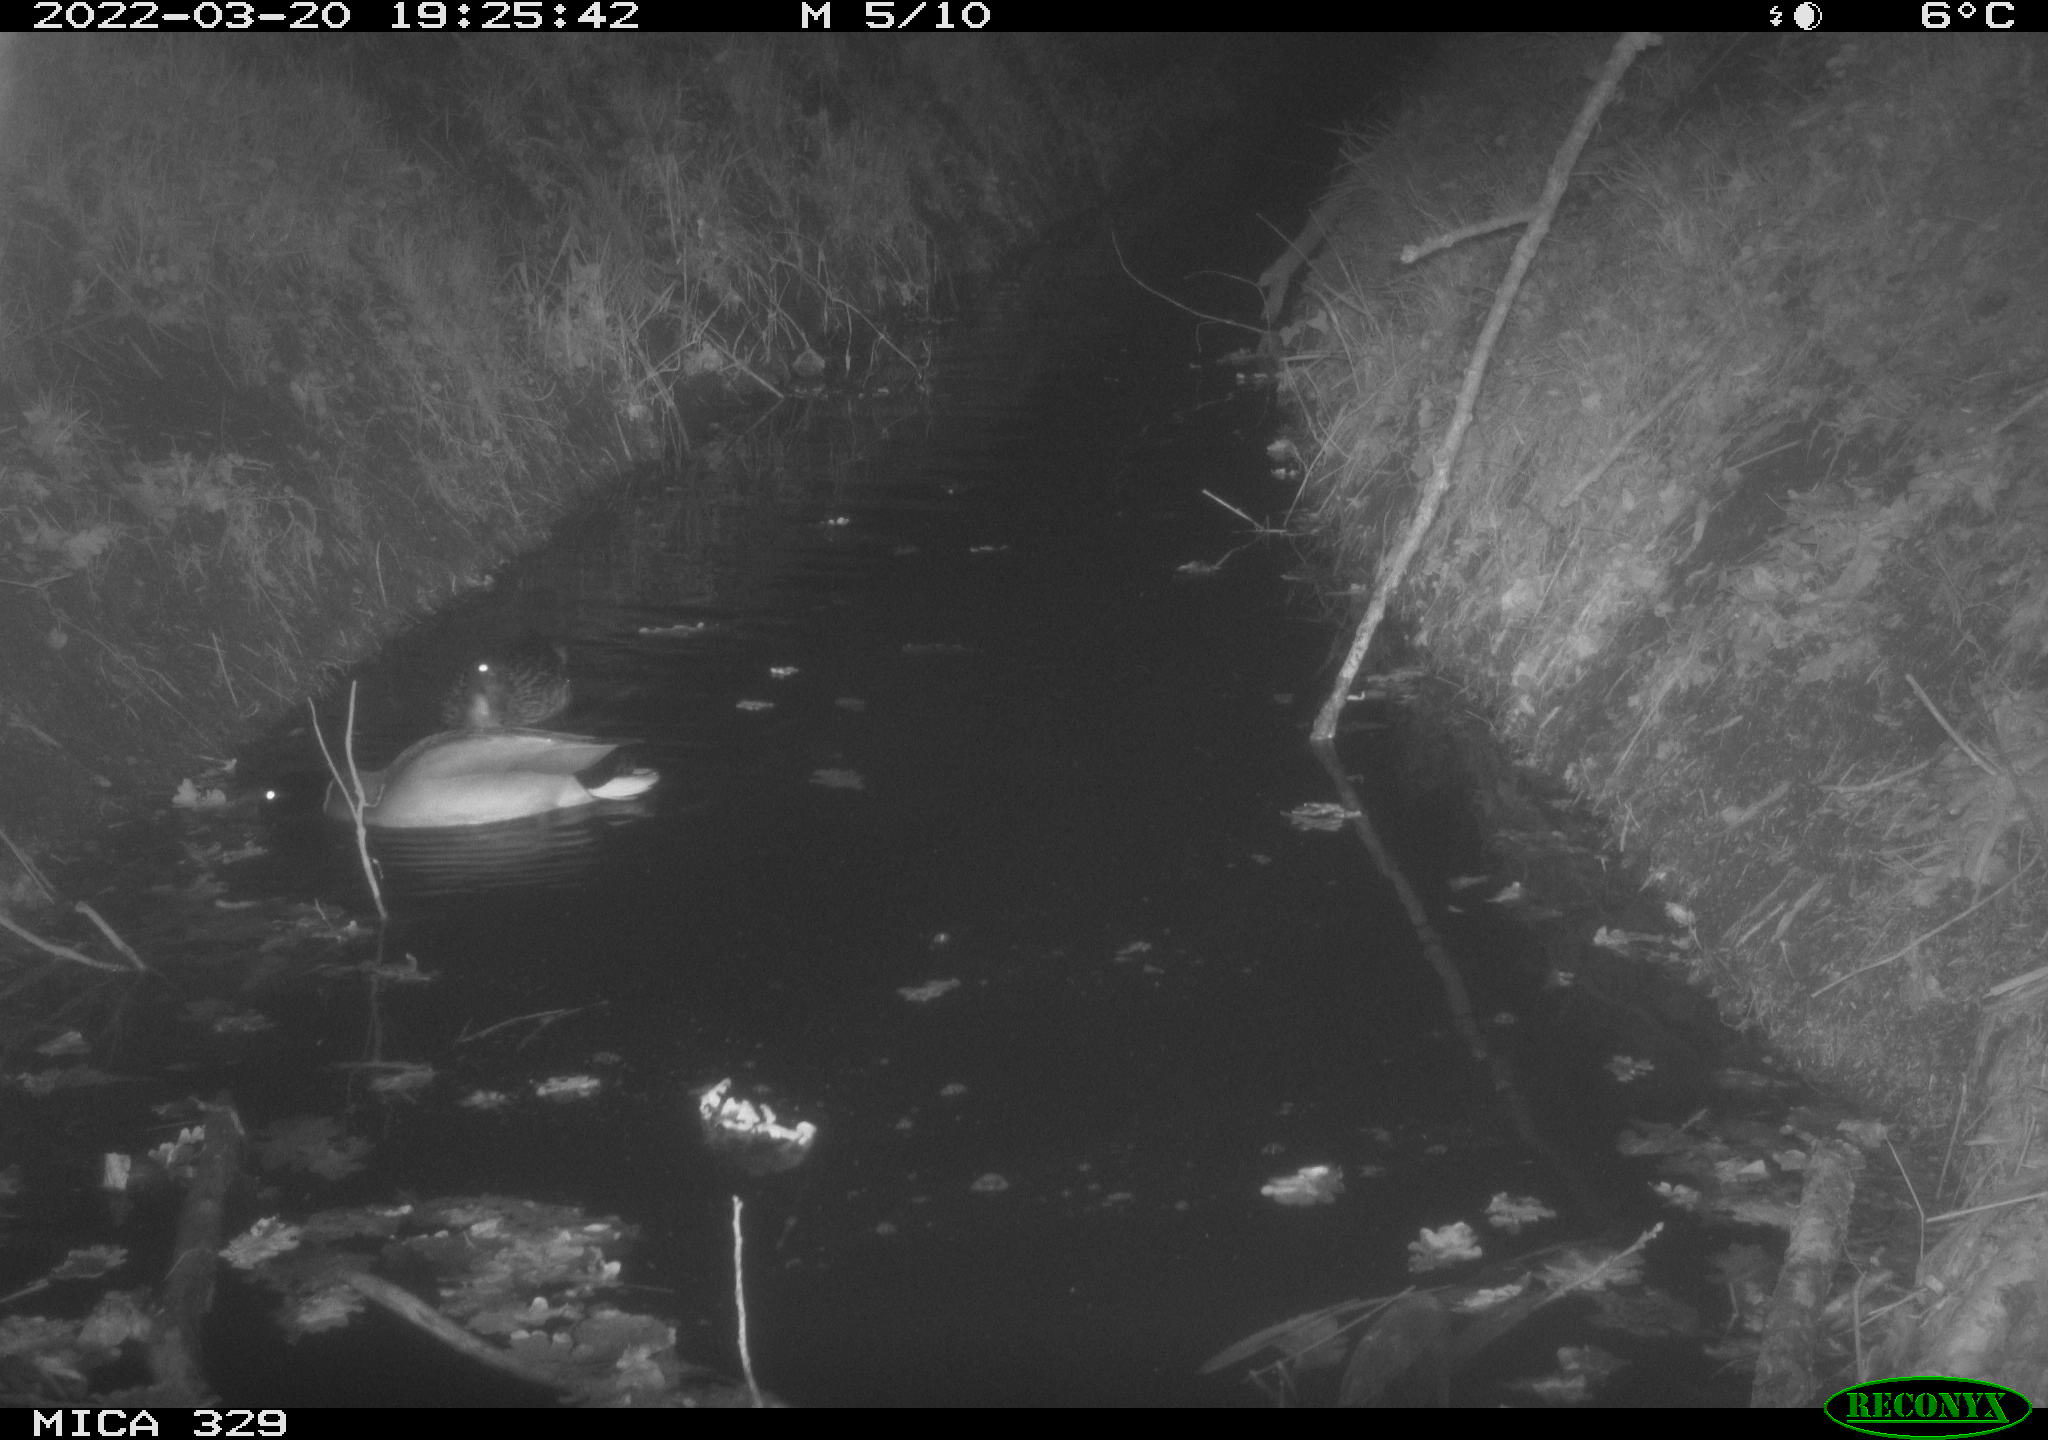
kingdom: Animalia
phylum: Chordata
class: Aves
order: Anseriformes
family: Anatidae
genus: Anas
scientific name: Anas platyrhynchos
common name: Mallard
